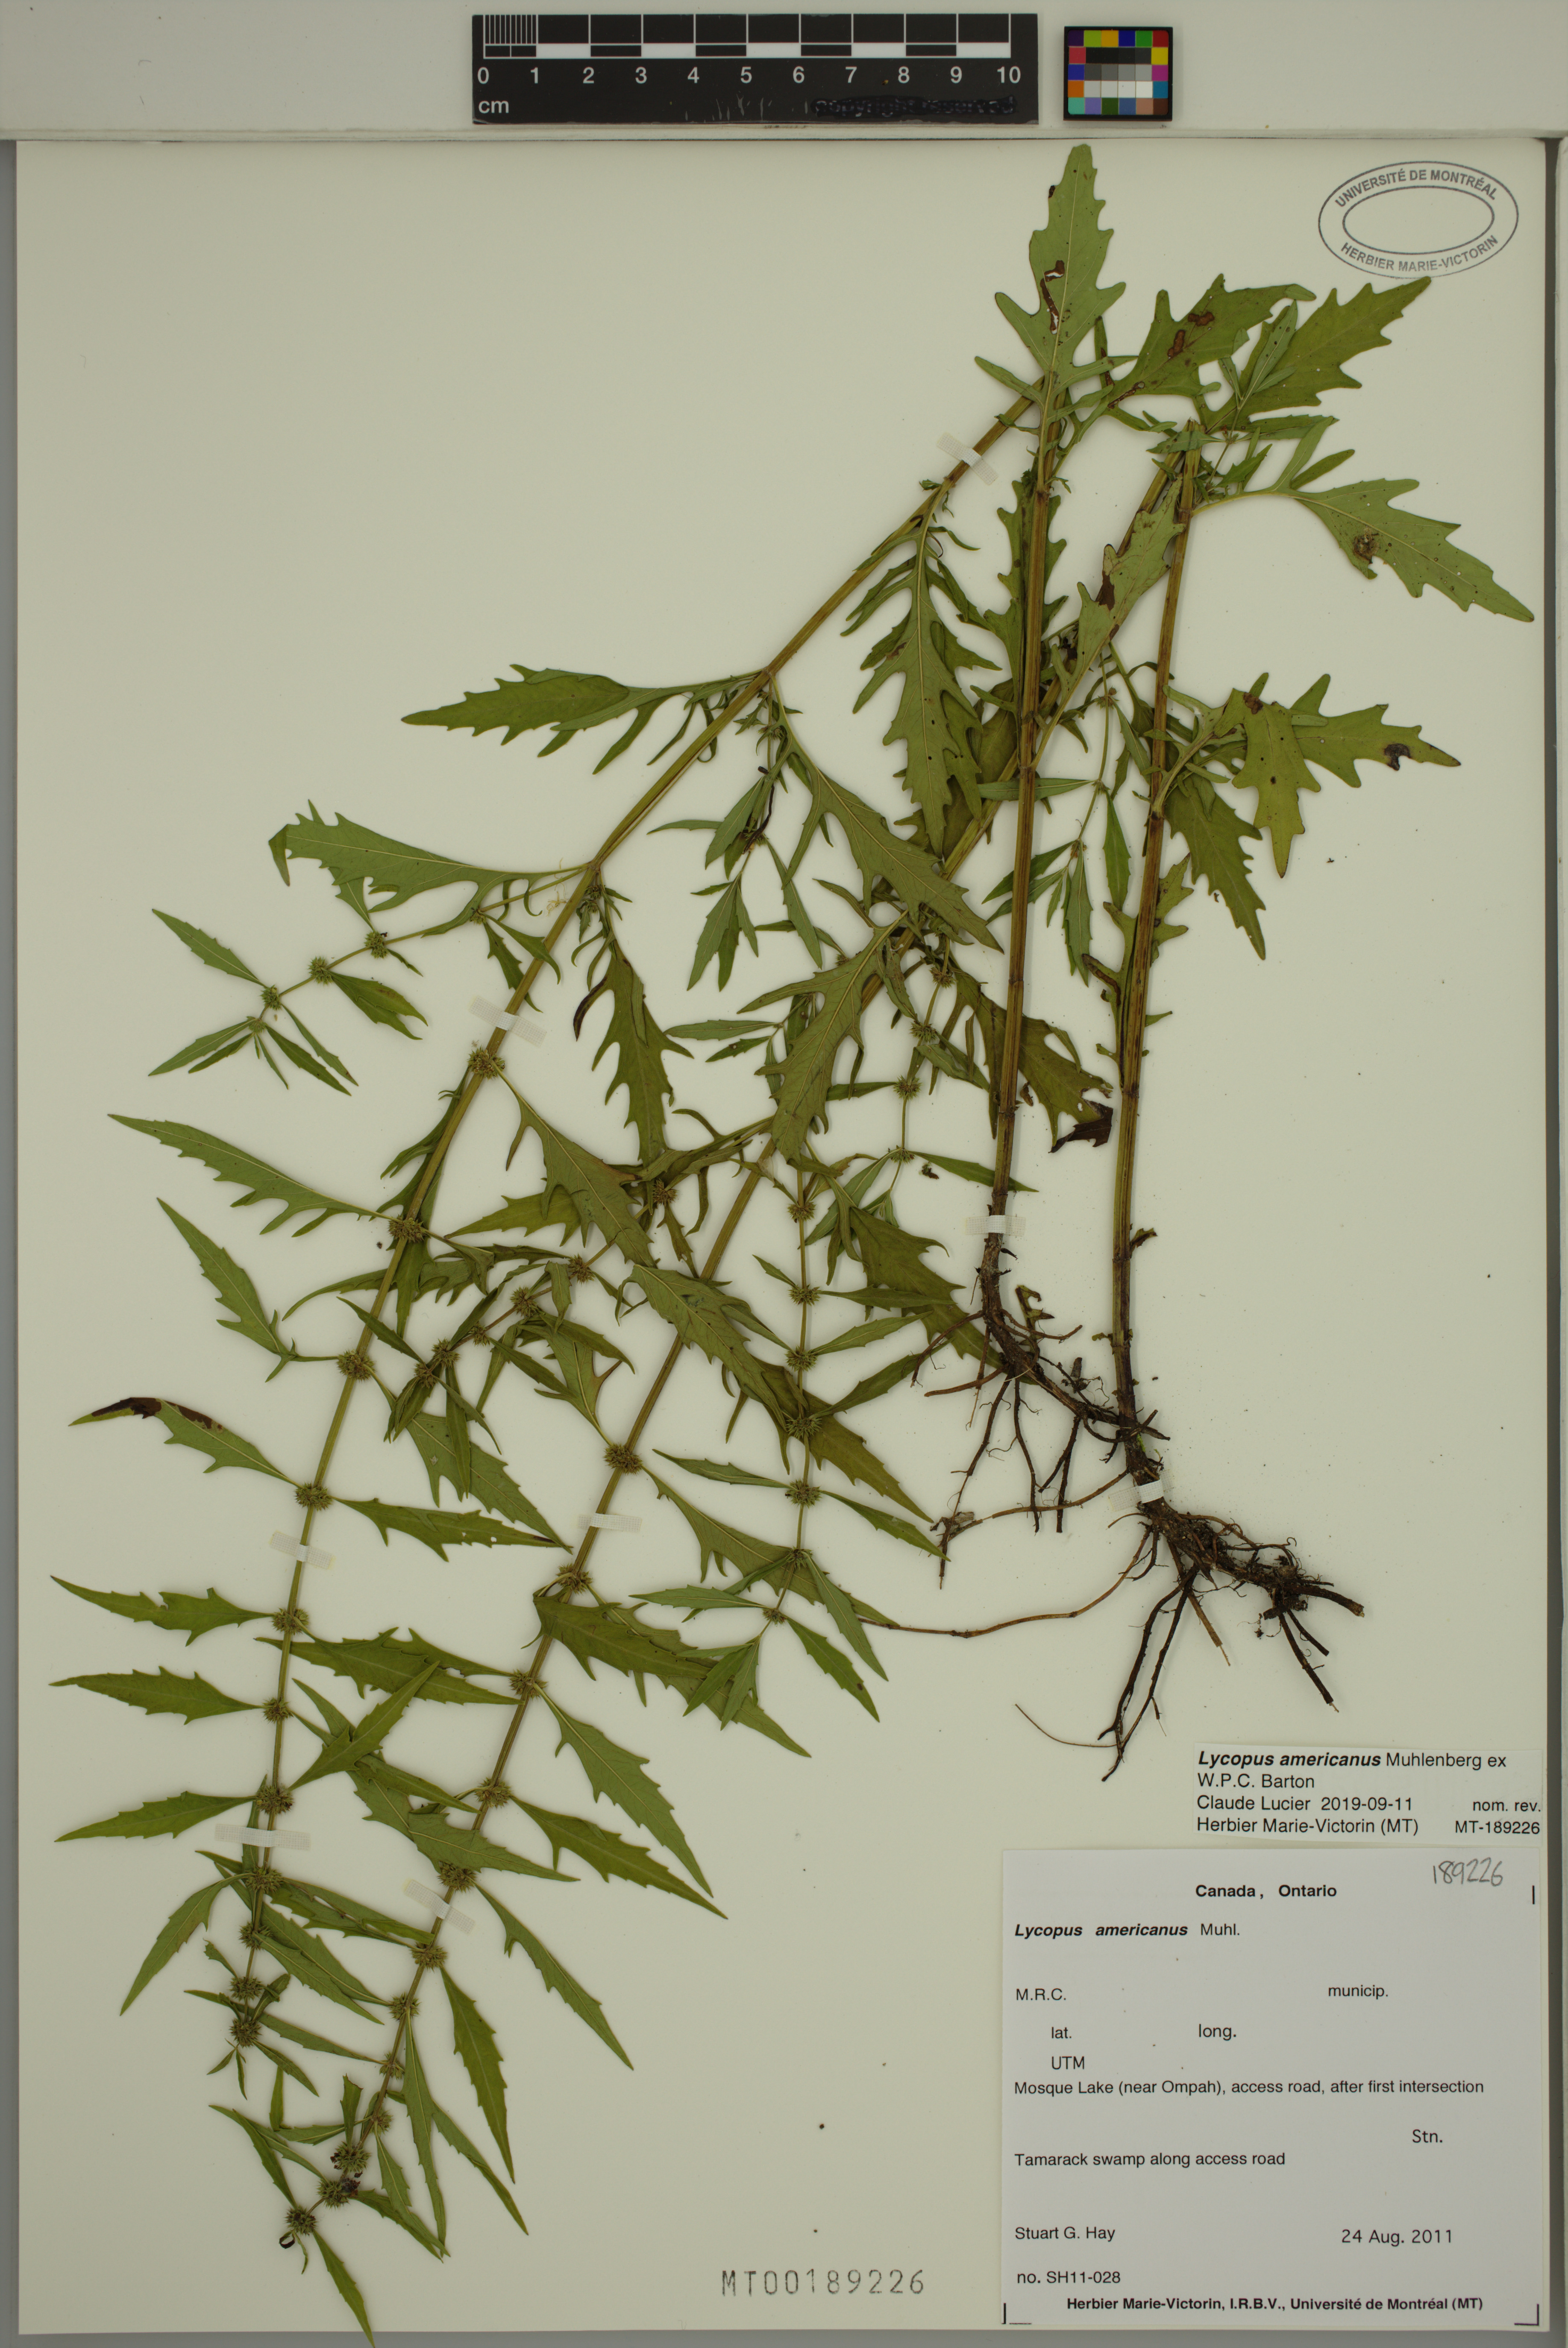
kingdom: Plantae
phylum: Tracheophyta
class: Magnoliopsida
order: Lamiales
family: Lamiaceae
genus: Lycopus
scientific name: Lycopus americanus
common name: American bugleweed
